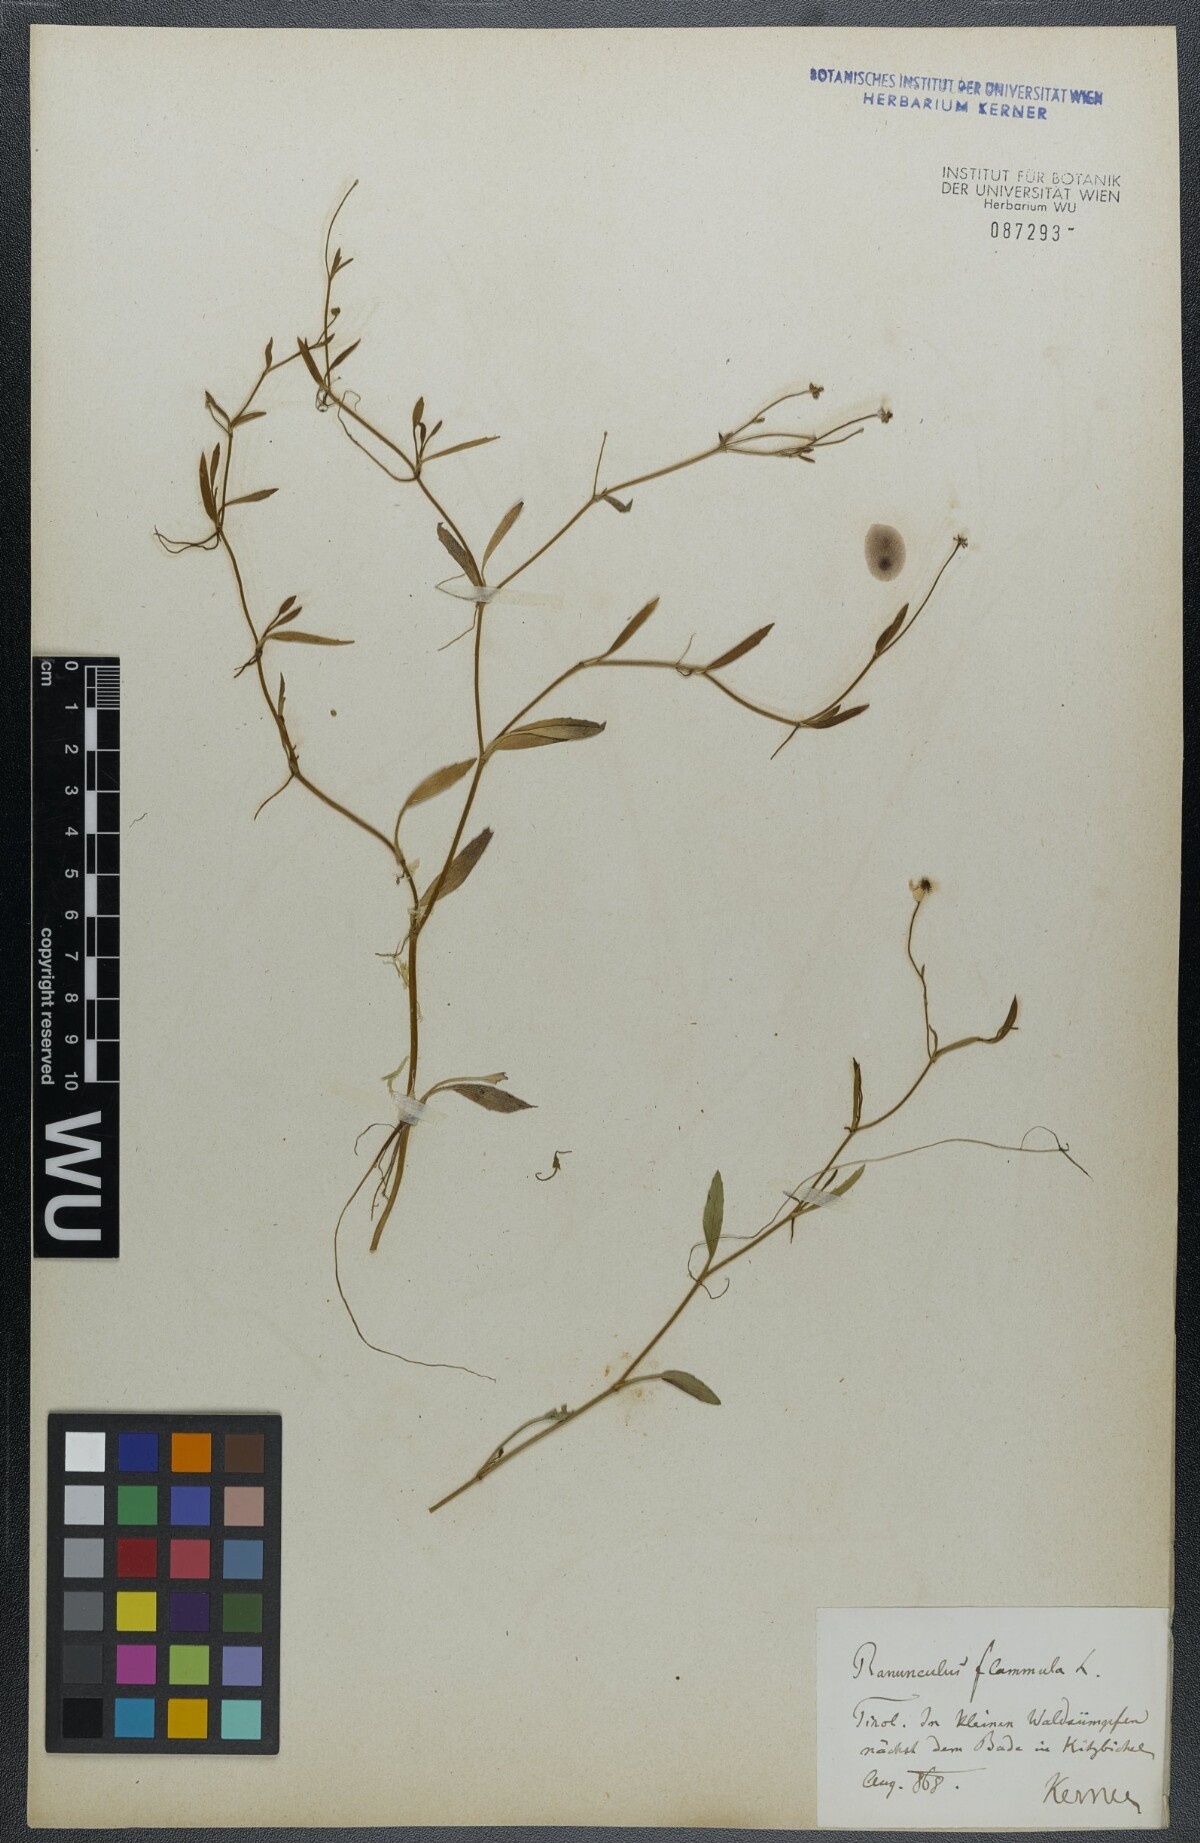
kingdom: Plantae
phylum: Tracheophyta
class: Magnoliopsida
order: Ranunculales
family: Ranunculaceae
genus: Ranunculus
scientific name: Ranunculus reptans
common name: Creeping spearwort
